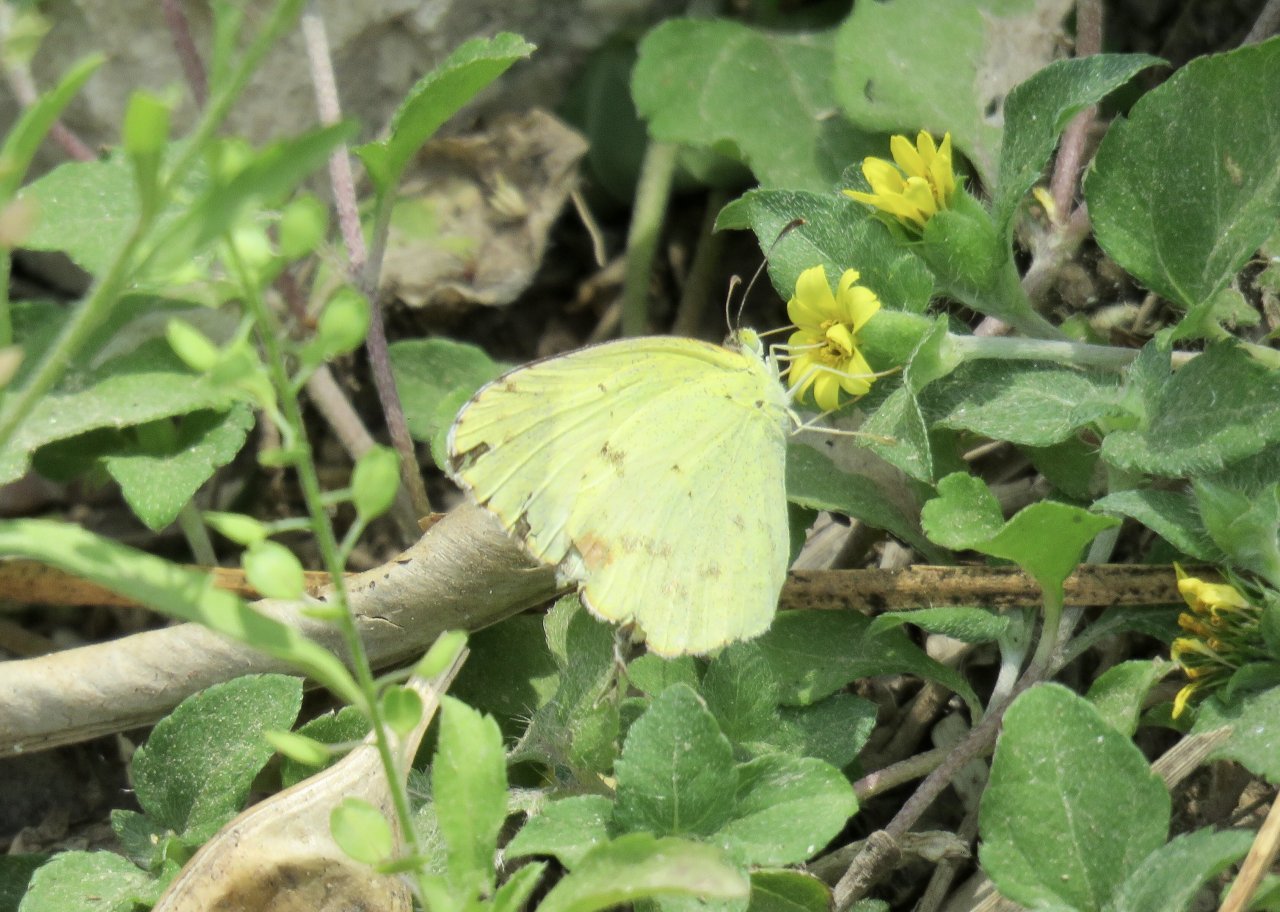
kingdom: Animalia
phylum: Arthropoda
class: Insecta
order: Lepidoptera
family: Pieridae
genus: Pyrisitia
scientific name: Pyrisitia lisa
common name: Little Yellow
